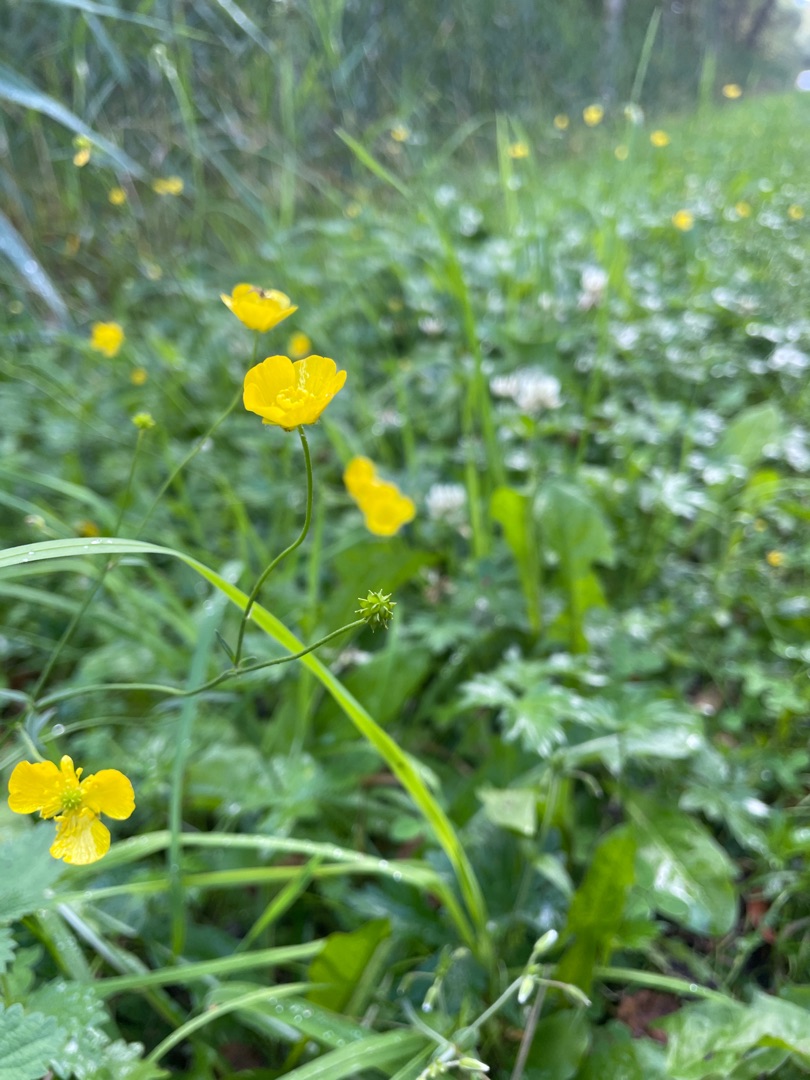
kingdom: Plantae
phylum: Tracheophyta
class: Magnoliopsida
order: Ranunculales
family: Ranunculaceae
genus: Ranunculus
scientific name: Ranunculus acris
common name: Bidende ranunkel
